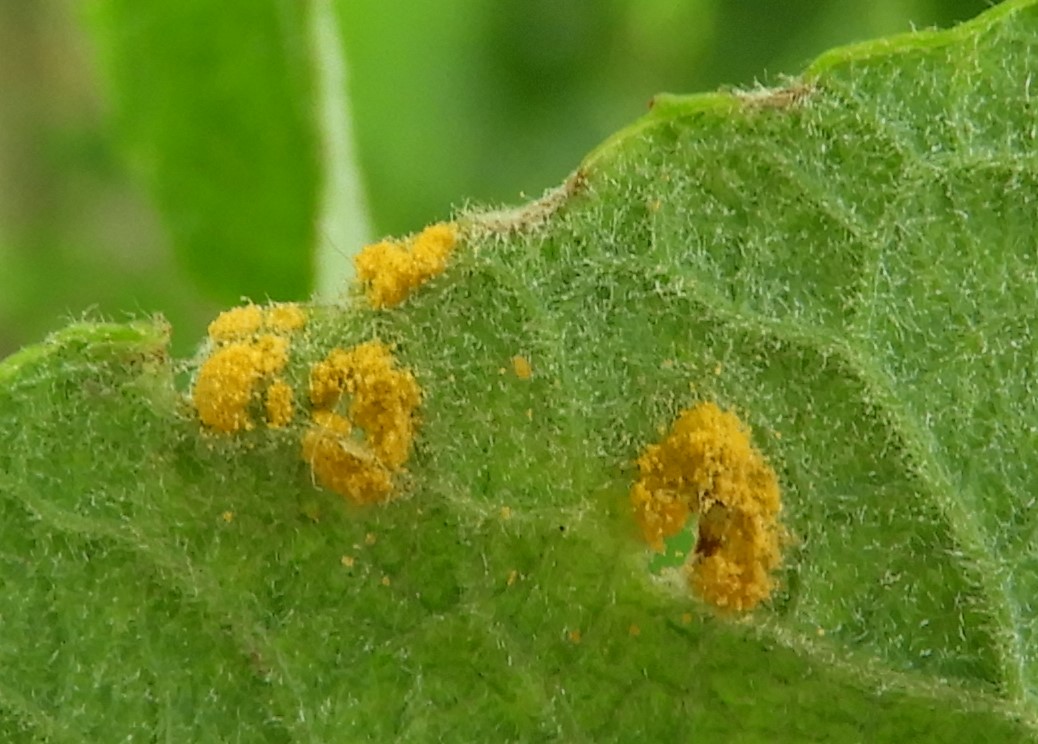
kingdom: Fungi
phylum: Basidiomycota
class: Pucciniomycetes
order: Pucciniales
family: Melampsoraceae
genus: Melampsora
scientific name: Melampsora epitea
